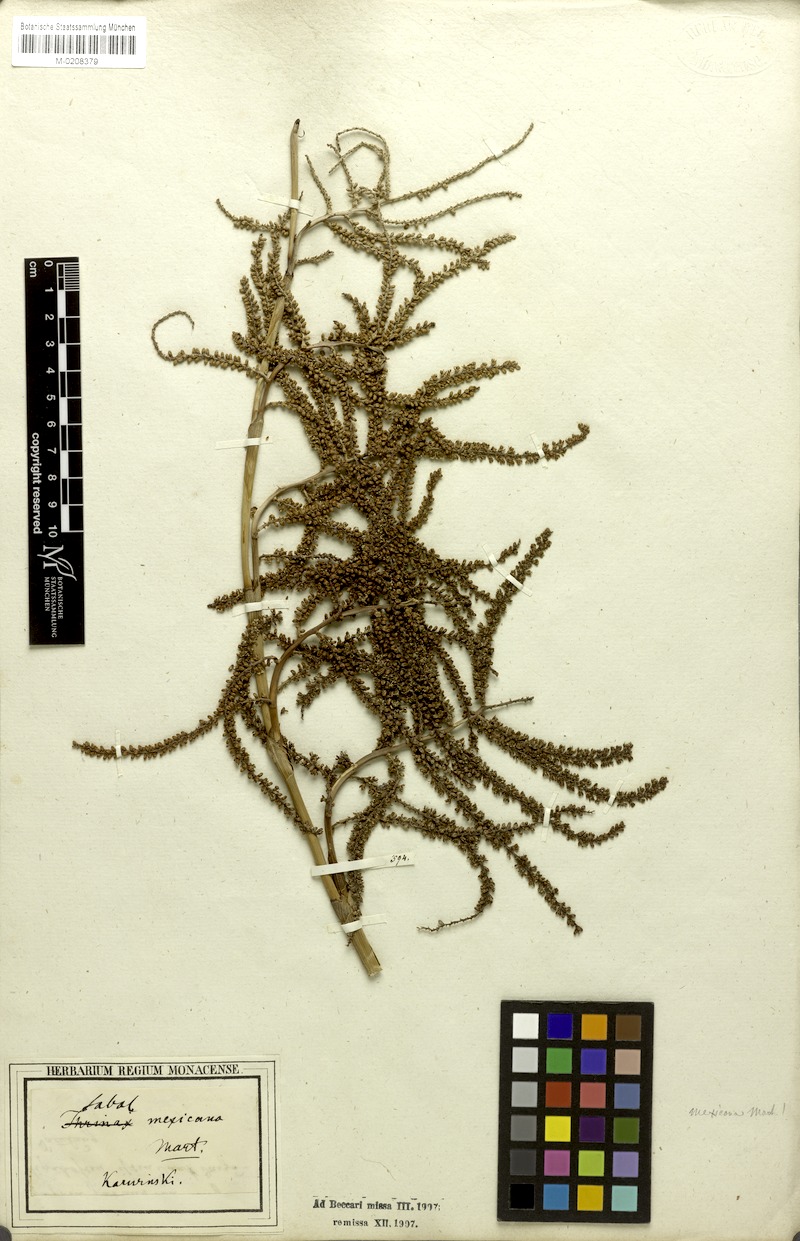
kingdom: Plantae
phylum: Tracheophyta
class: Liliopsida
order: Arecales
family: Arecaceae
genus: Sabal
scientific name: Sabal mexicana
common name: Texas palmetto
